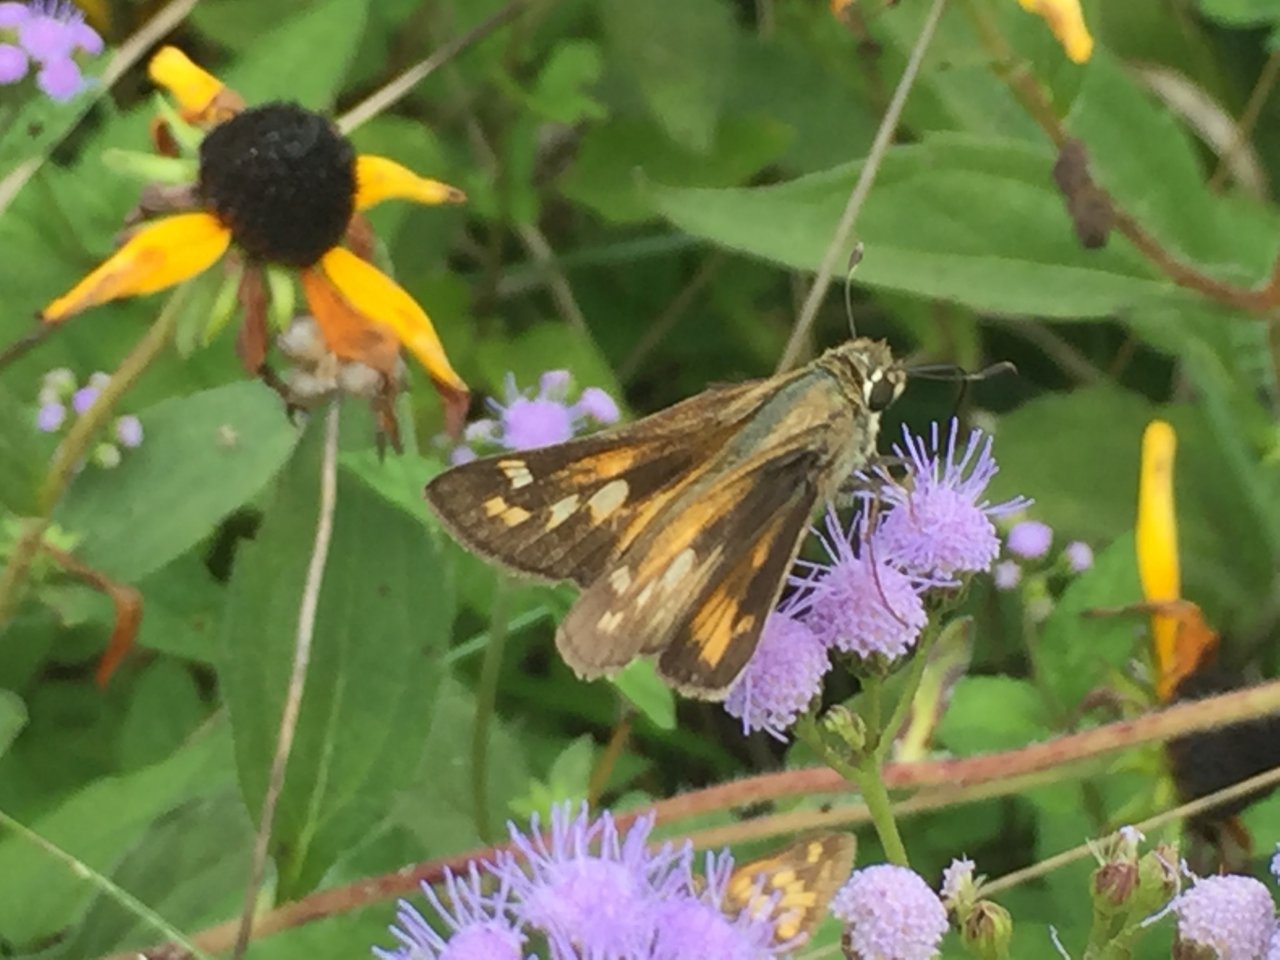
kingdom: Animalia
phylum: Arthropoda
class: Insecta
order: Lepidoptera
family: Hesperiidae
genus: Atalopedes
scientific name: Atalopedes campestris
